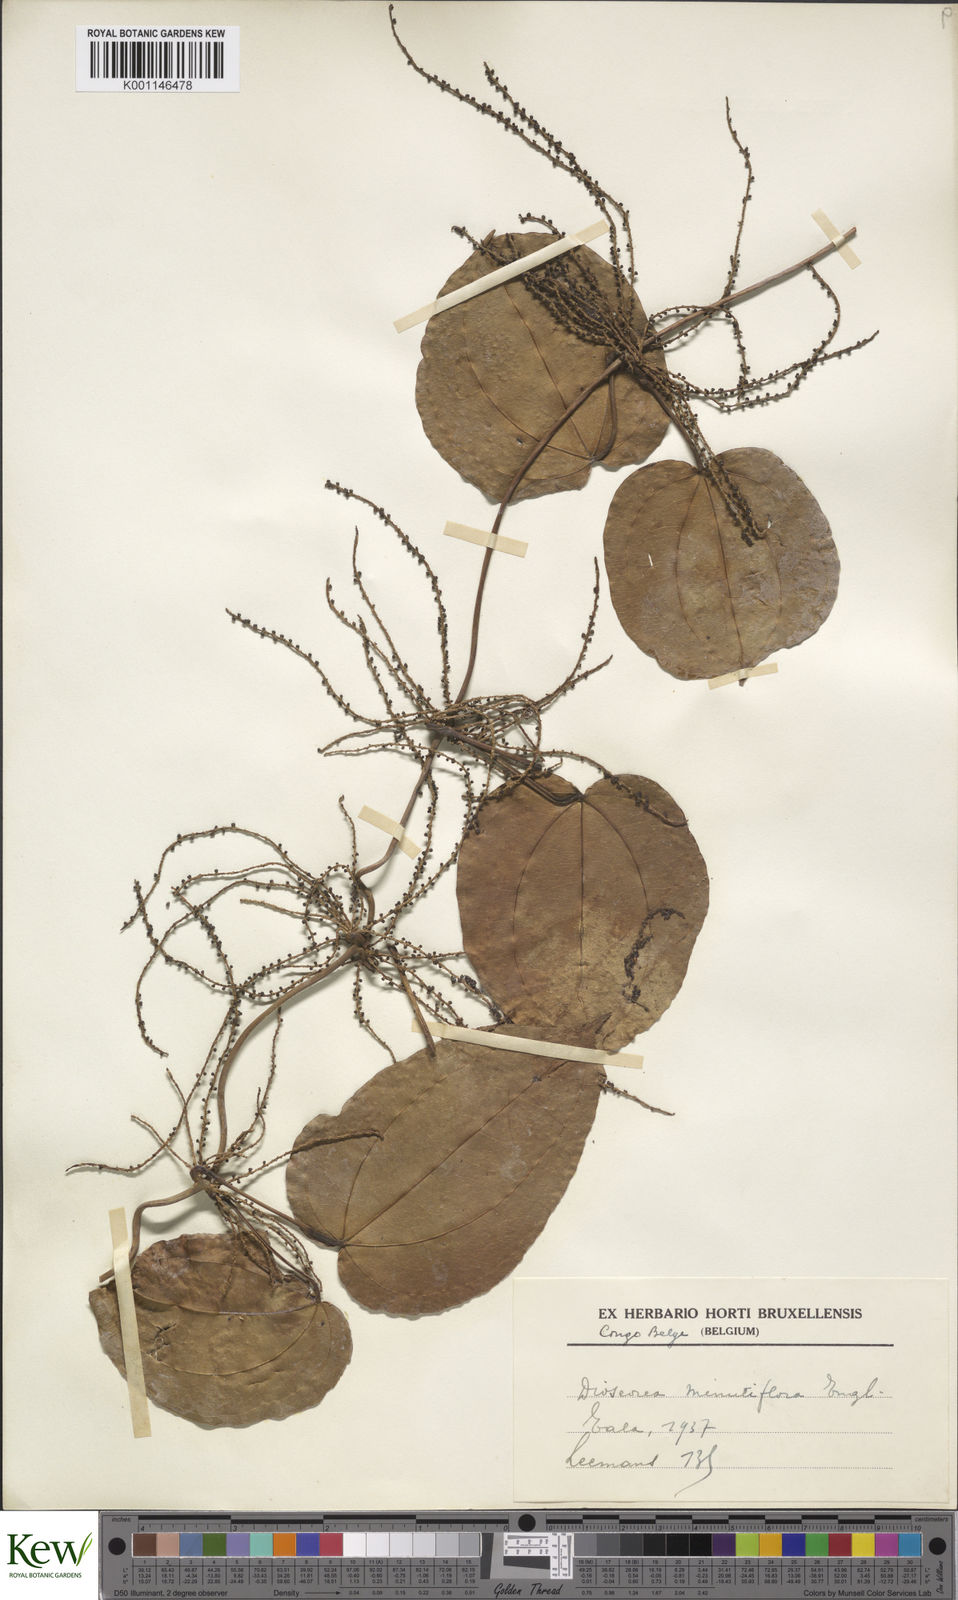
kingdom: Plantae
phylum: Tracheophyta
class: Liliopsida
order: Dioscoreales
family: Dioscoreaceae
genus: Dioscorea
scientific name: Dioscorea minutiflora
